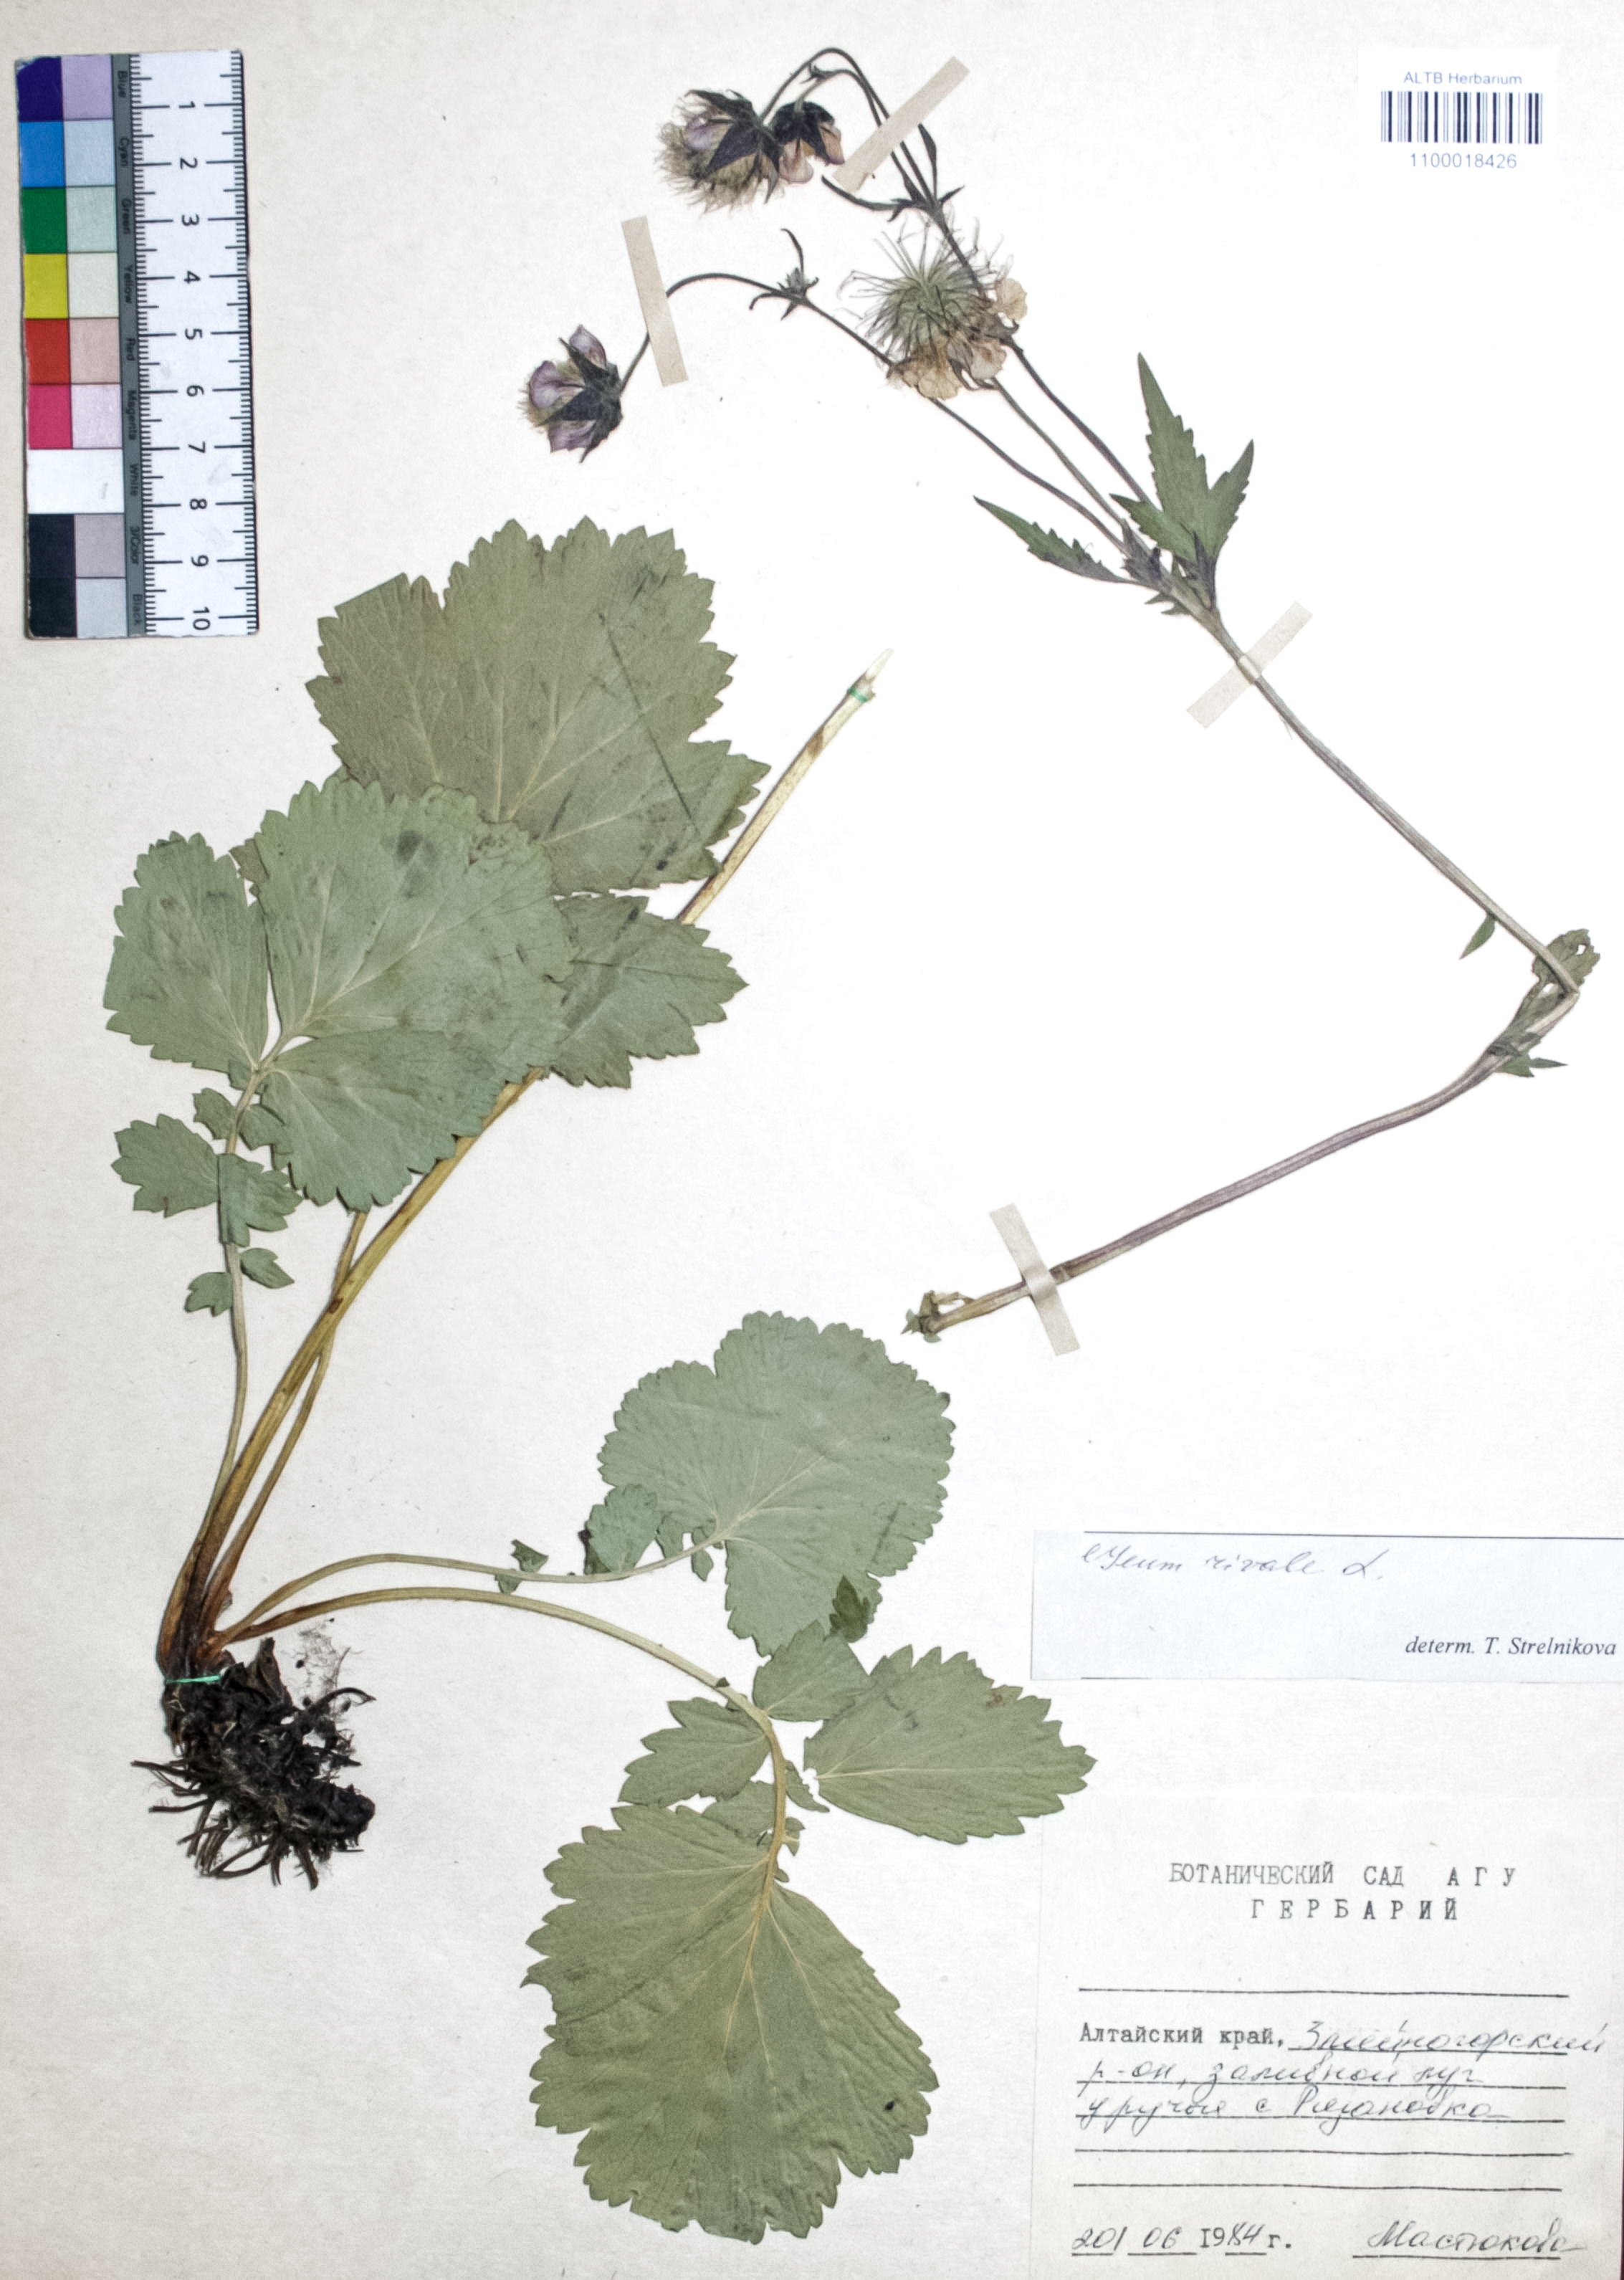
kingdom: Plantae
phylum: Tracheophyta
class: Magnoliopsida
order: Rosales
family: Rosaceae
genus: Geum
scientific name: Geum rivale
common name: Water avens
